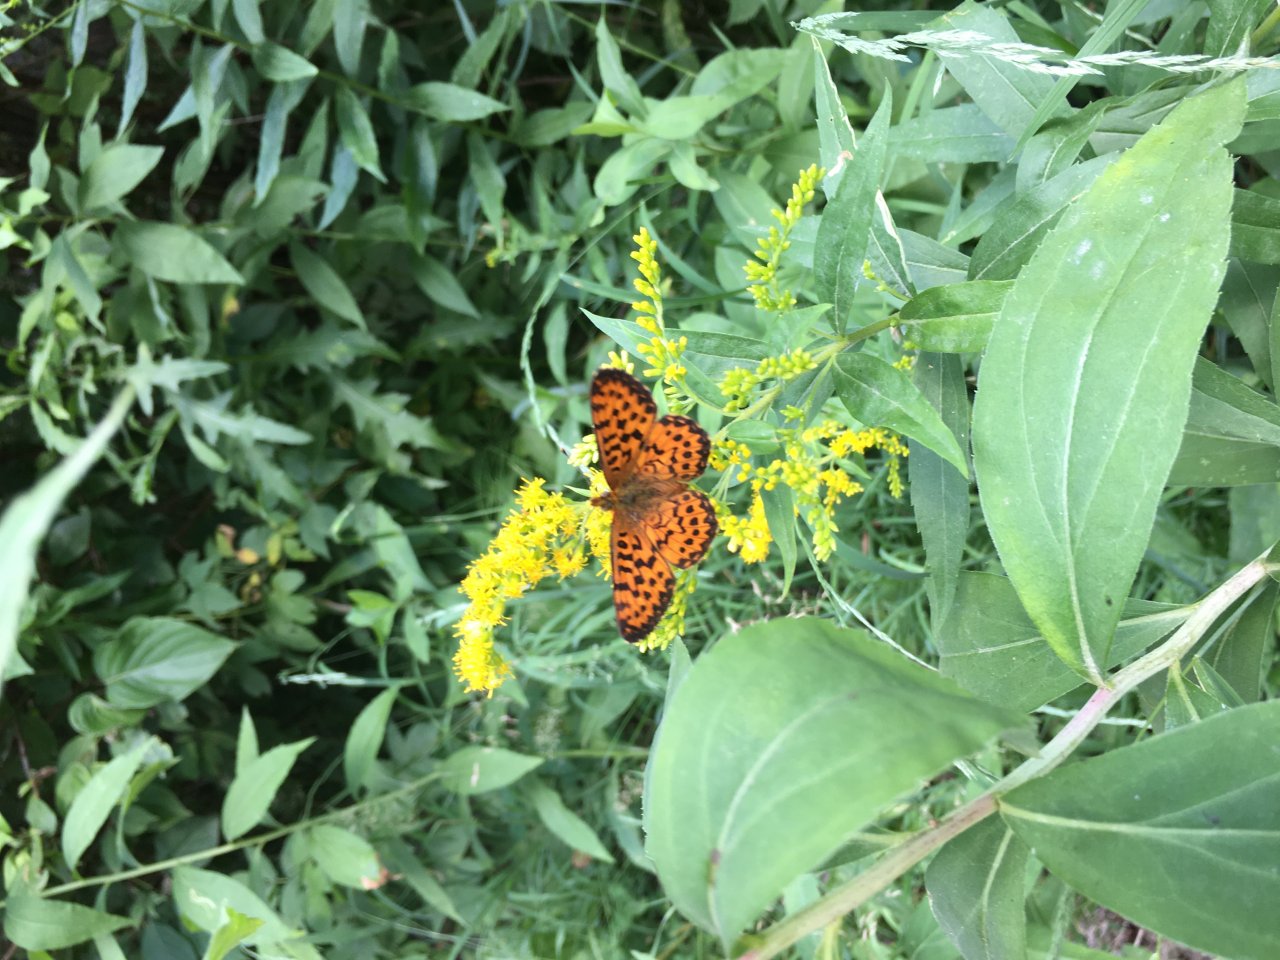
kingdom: Animalia
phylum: Arthropoda
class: Insecta
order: Lepidoptera
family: Nymphalidae
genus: Boloria
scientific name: Boloria chariclea
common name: Arctic Fritillary
